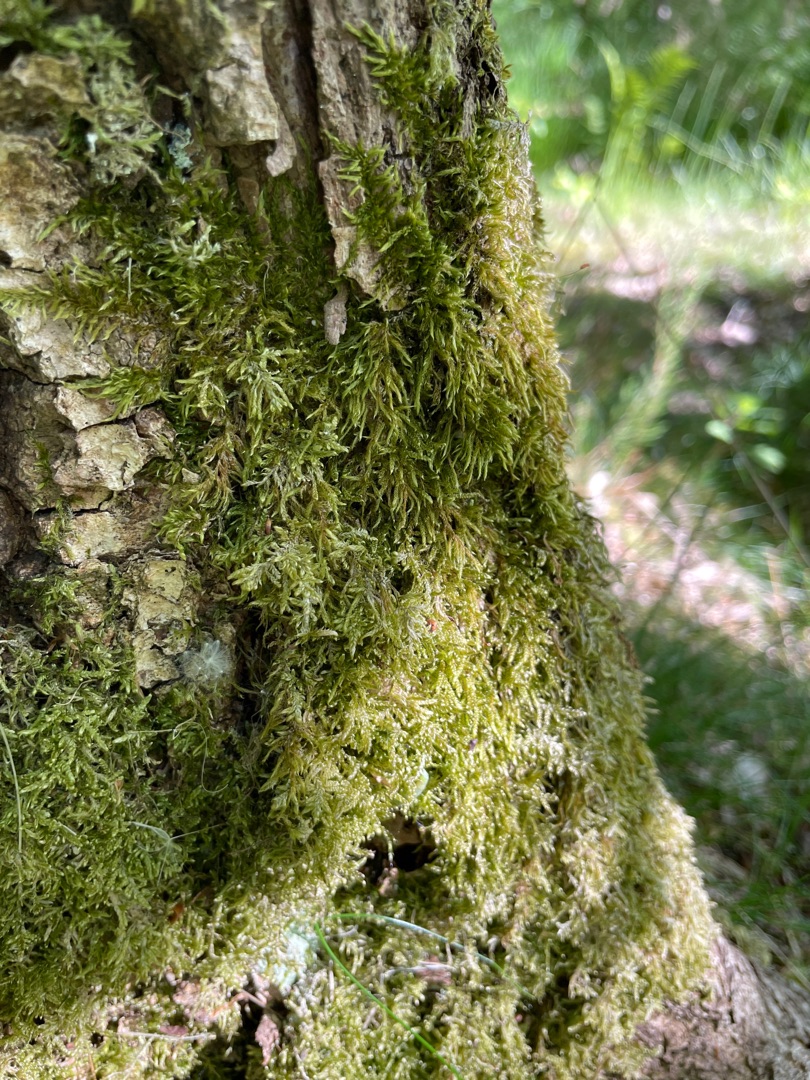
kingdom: Plantae
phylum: Bryophyta
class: Bryopsida
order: Hypnales
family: Hypnaceae
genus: Hypnum
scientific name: Hypnum
